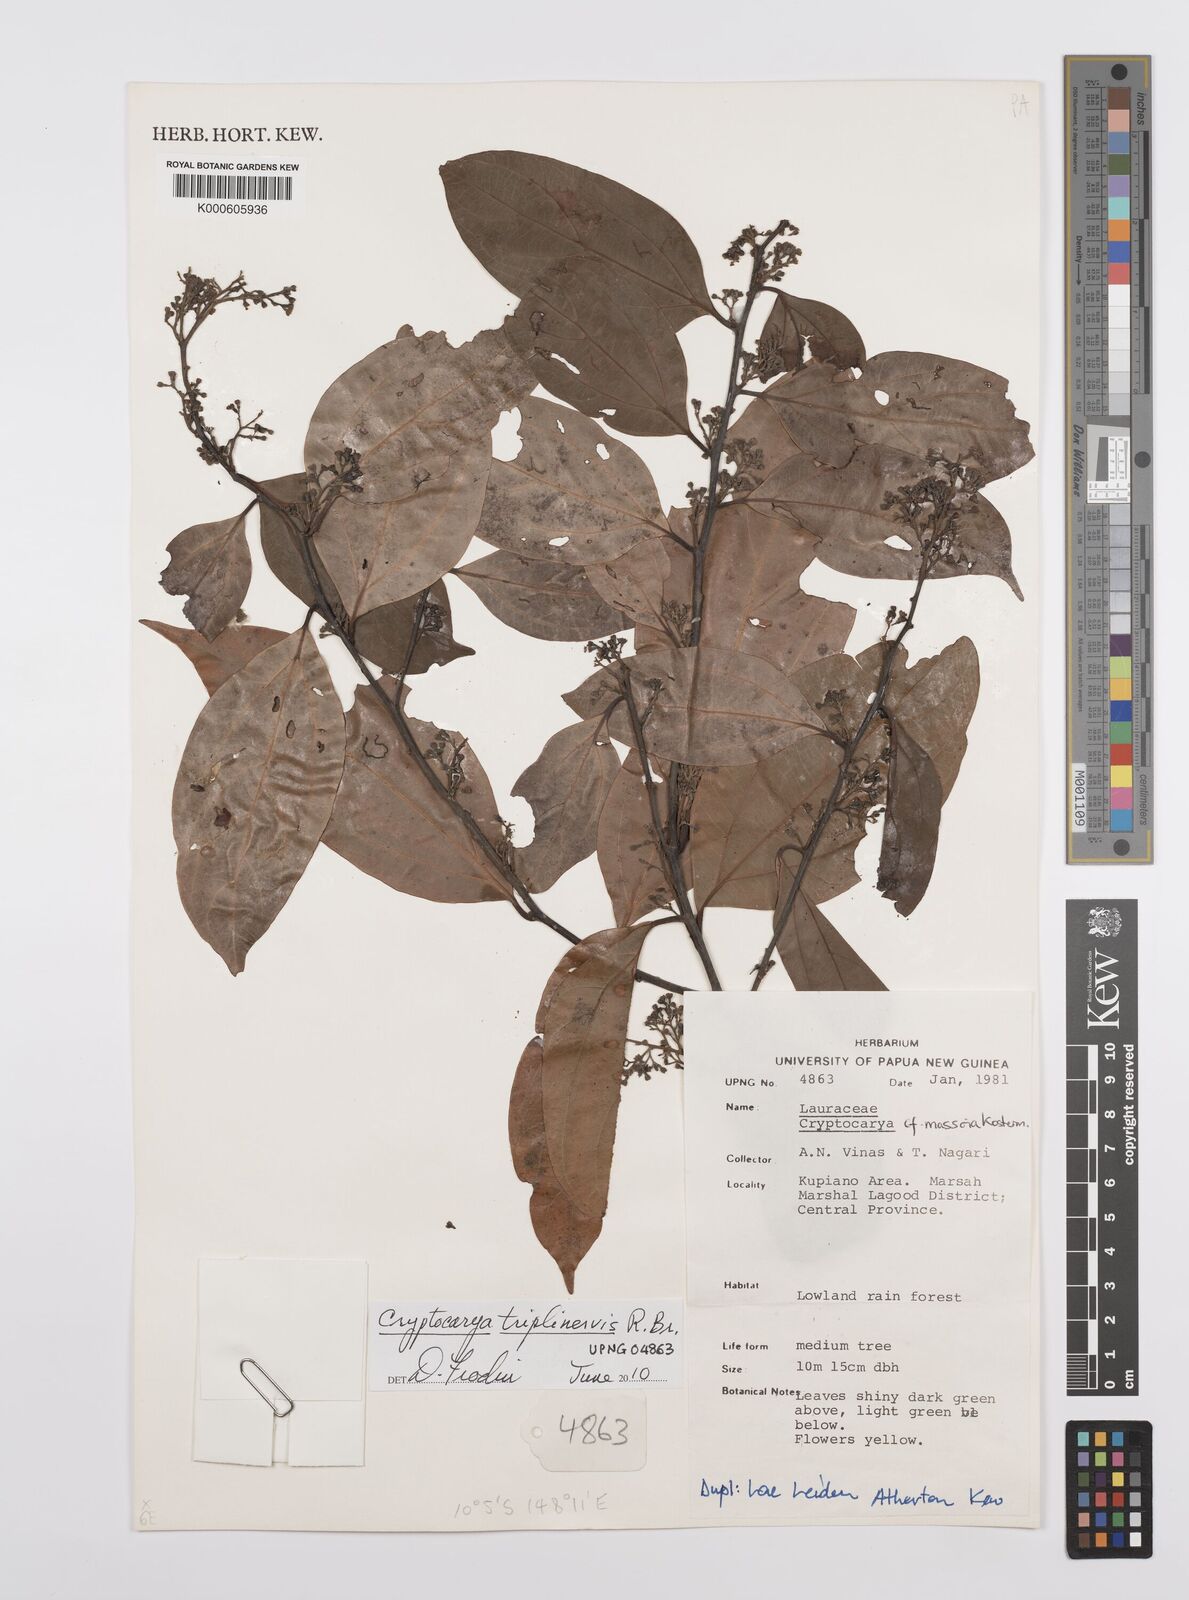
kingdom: Plantae
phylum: Tracheophyta
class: Magnoliopsida
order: Laurales
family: Lauraceae
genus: Cryptocarya
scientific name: Cryptocarya triplinervis
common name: Three-vein cryptocarya
